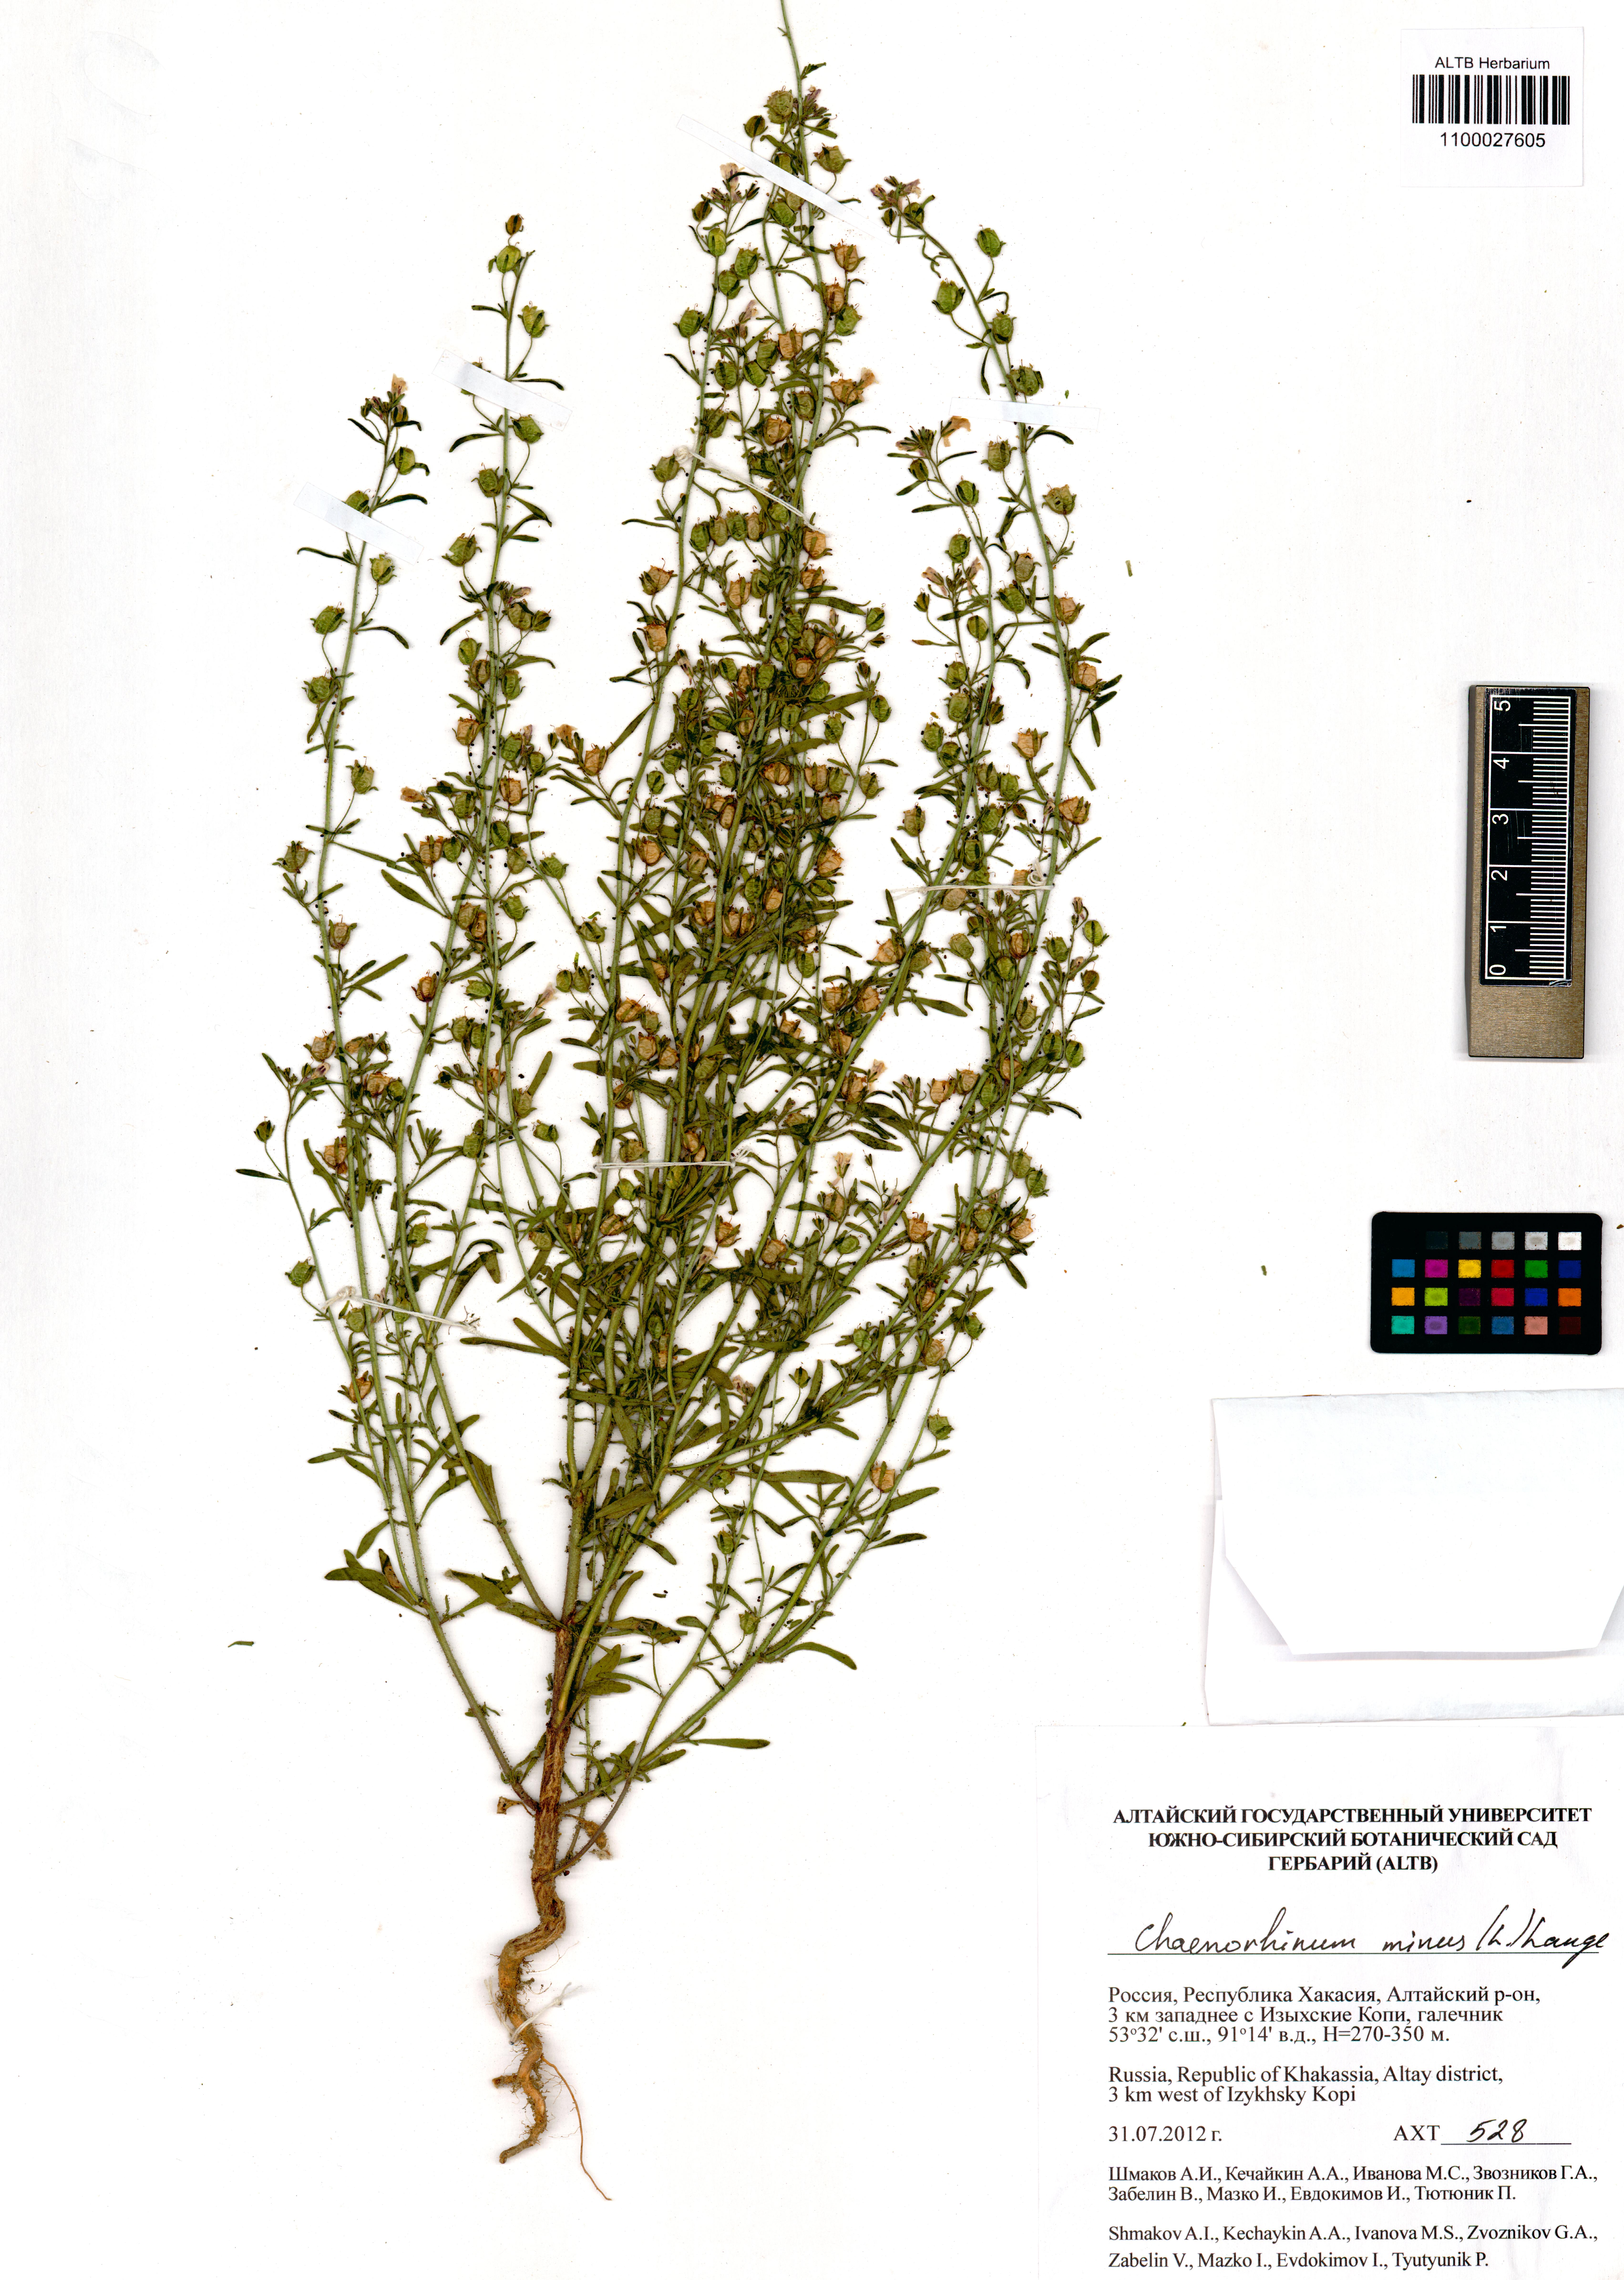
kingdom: Plantae
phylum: Tracheophyta
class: Magnoliopsida
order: Lamiales
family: Plantaginaceae
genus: Chaenorhinum
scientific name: Chaenorhinum minus
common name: Dwarf snapdragon
